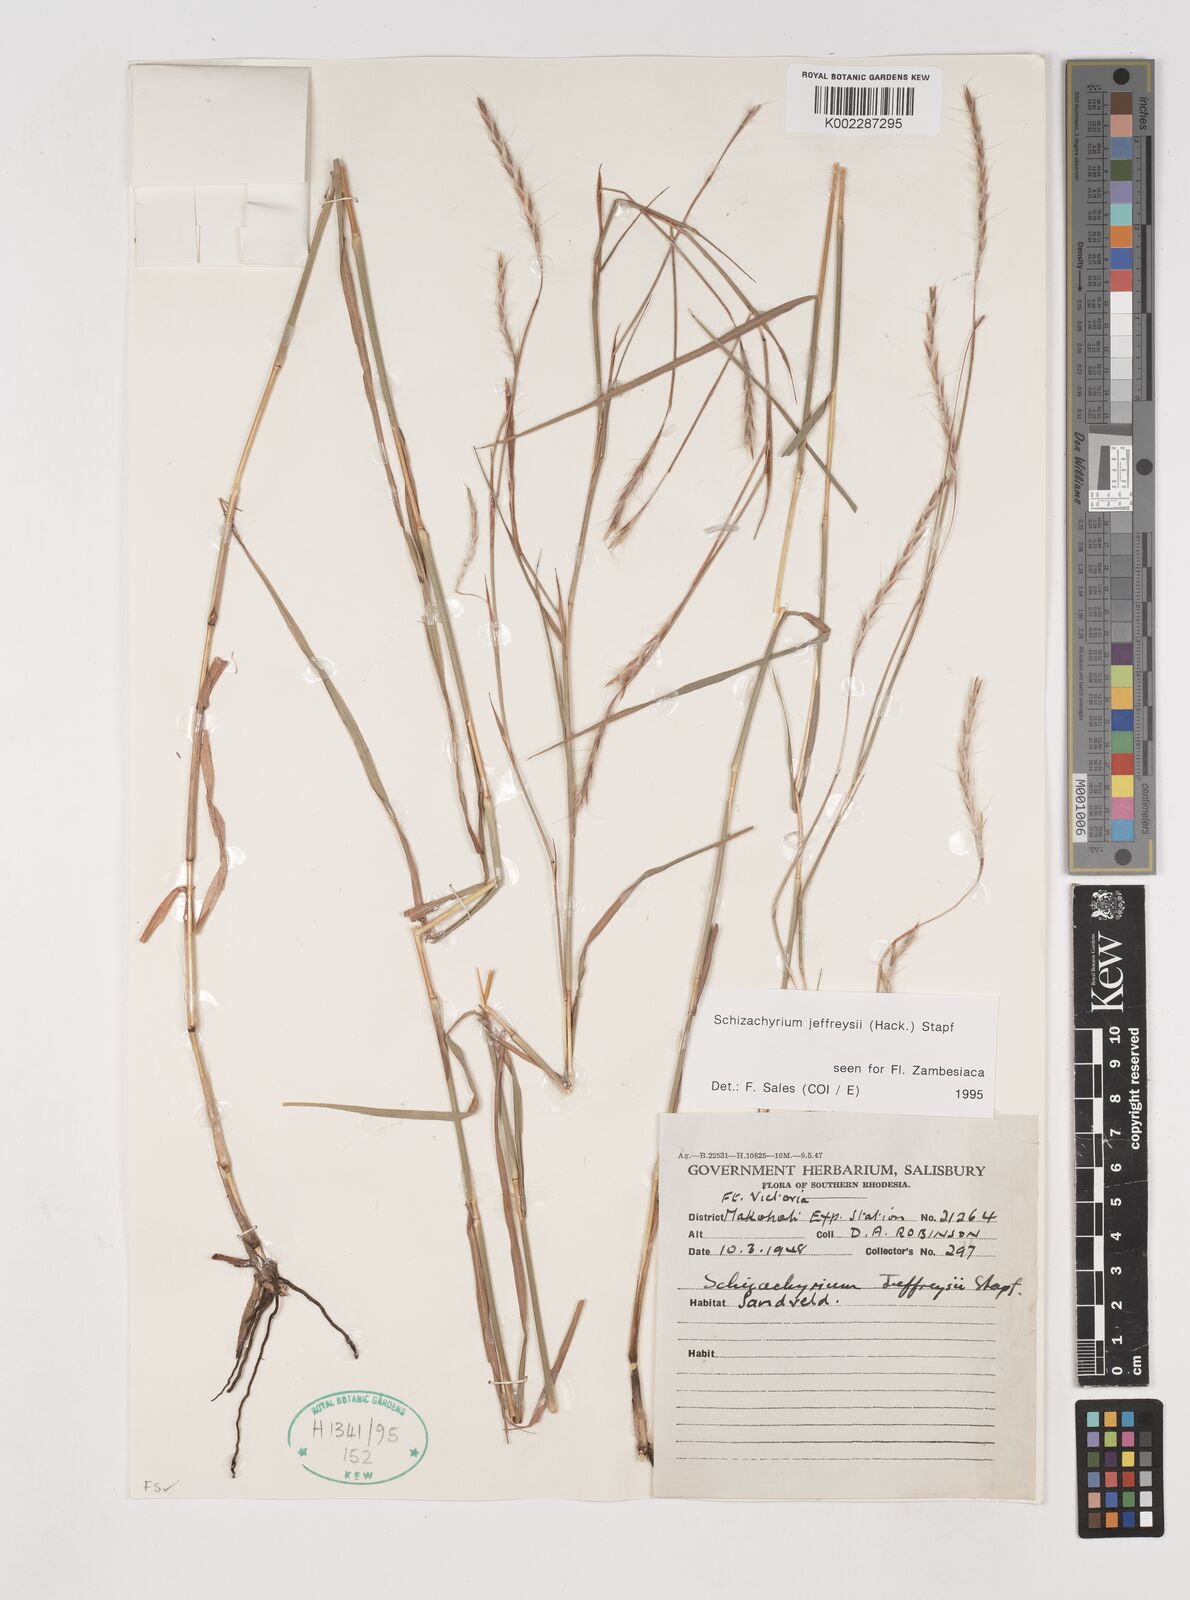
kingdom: Plantae
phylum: Tracheophyta
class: Liliopsida
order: Poales
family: Poaceae
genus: Schizachyrium
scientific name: Schizachyrium jeffreysii
